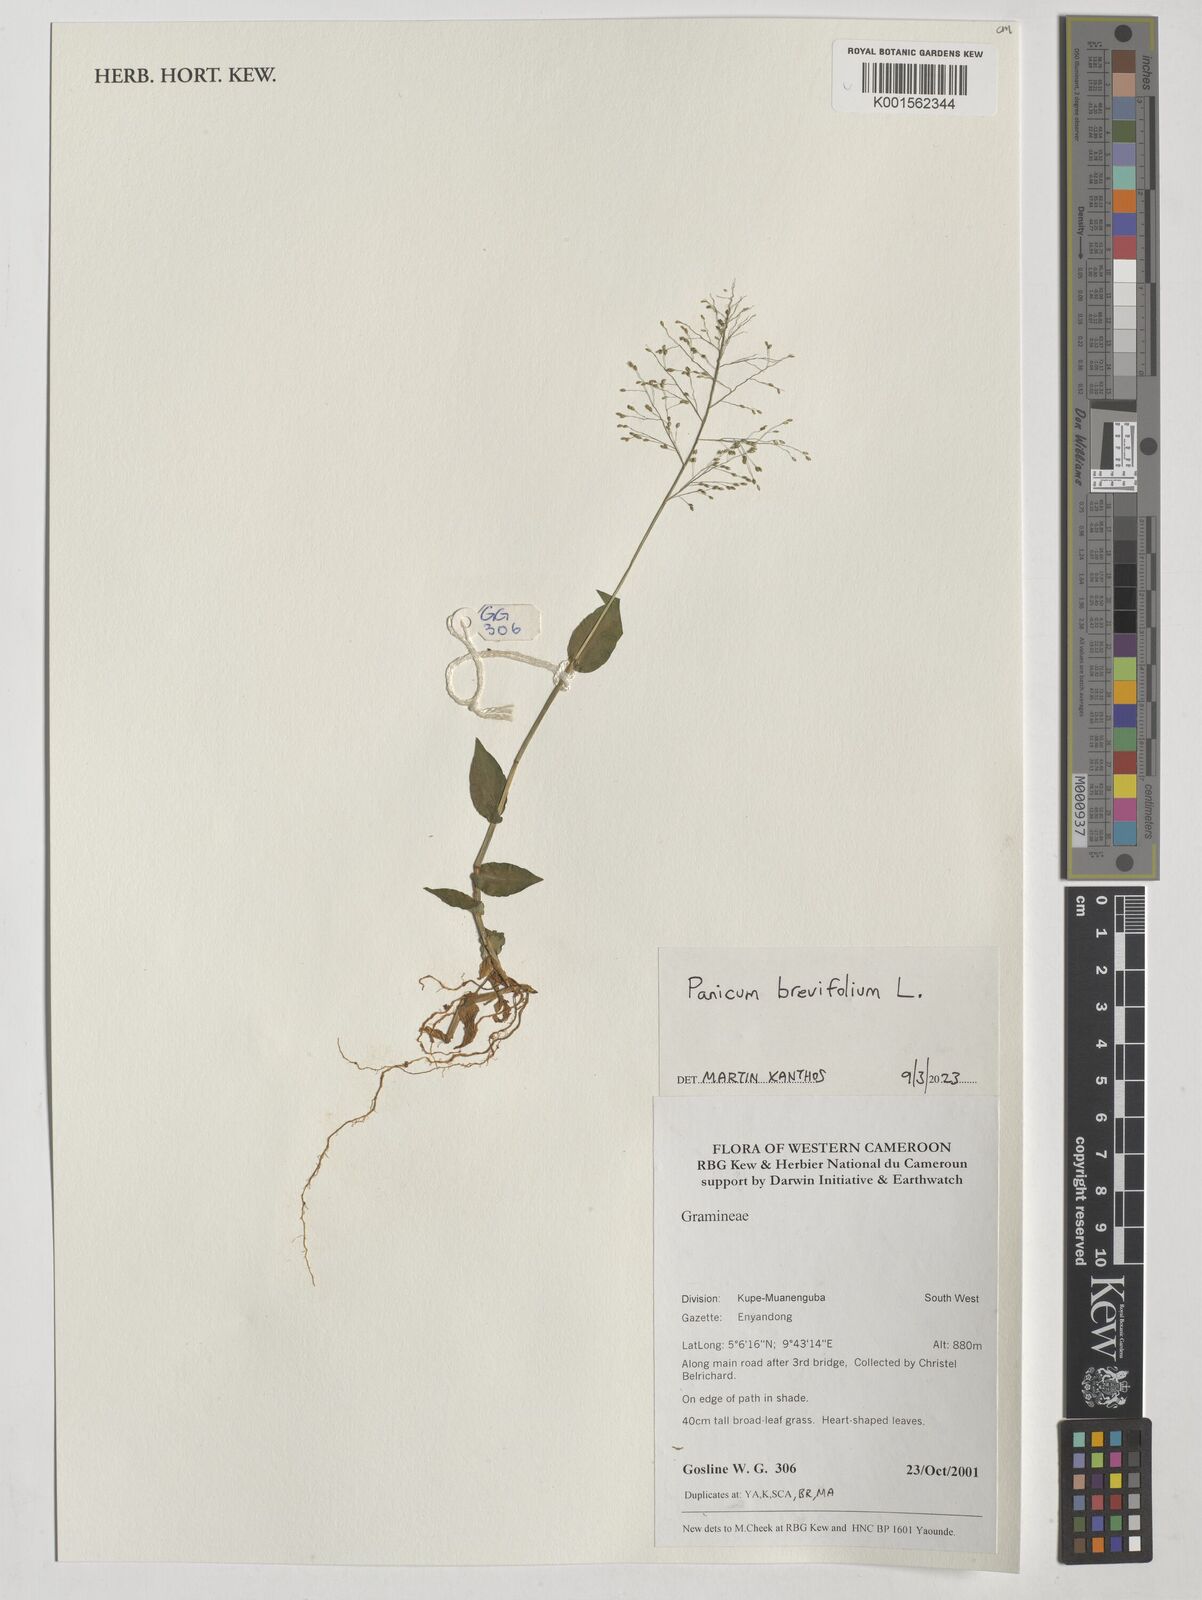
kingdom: Plantae
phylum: Tracheophyta
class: Liliopsida
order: Poales
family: Poaceae
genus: Panicum
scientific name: Panicum brevifolium
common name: Shortleaf panic grass
